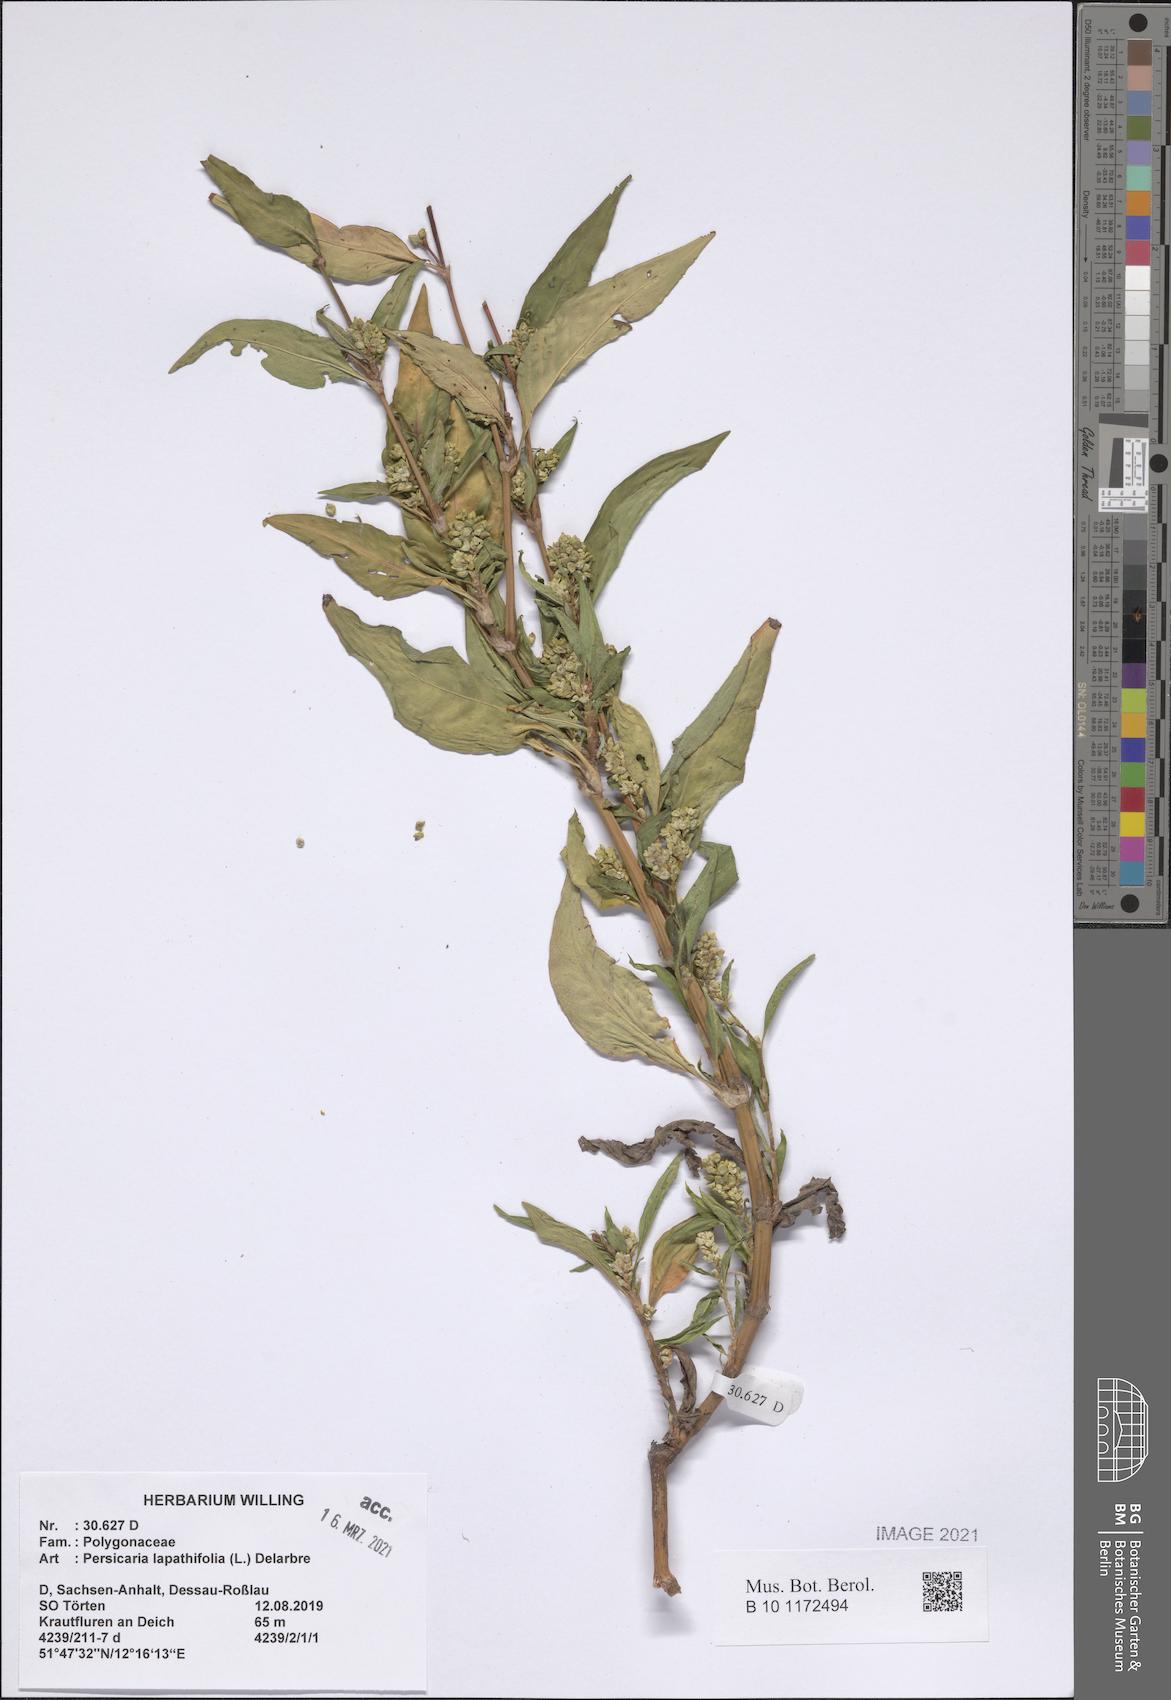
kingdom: Plantae
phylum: Tracheophyta
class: Magnoliopsida
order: Caryophyllales
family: Polygonaceae
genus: Persicaria
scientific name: Persicaria lapathifolia
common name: Curlytop knotweed
